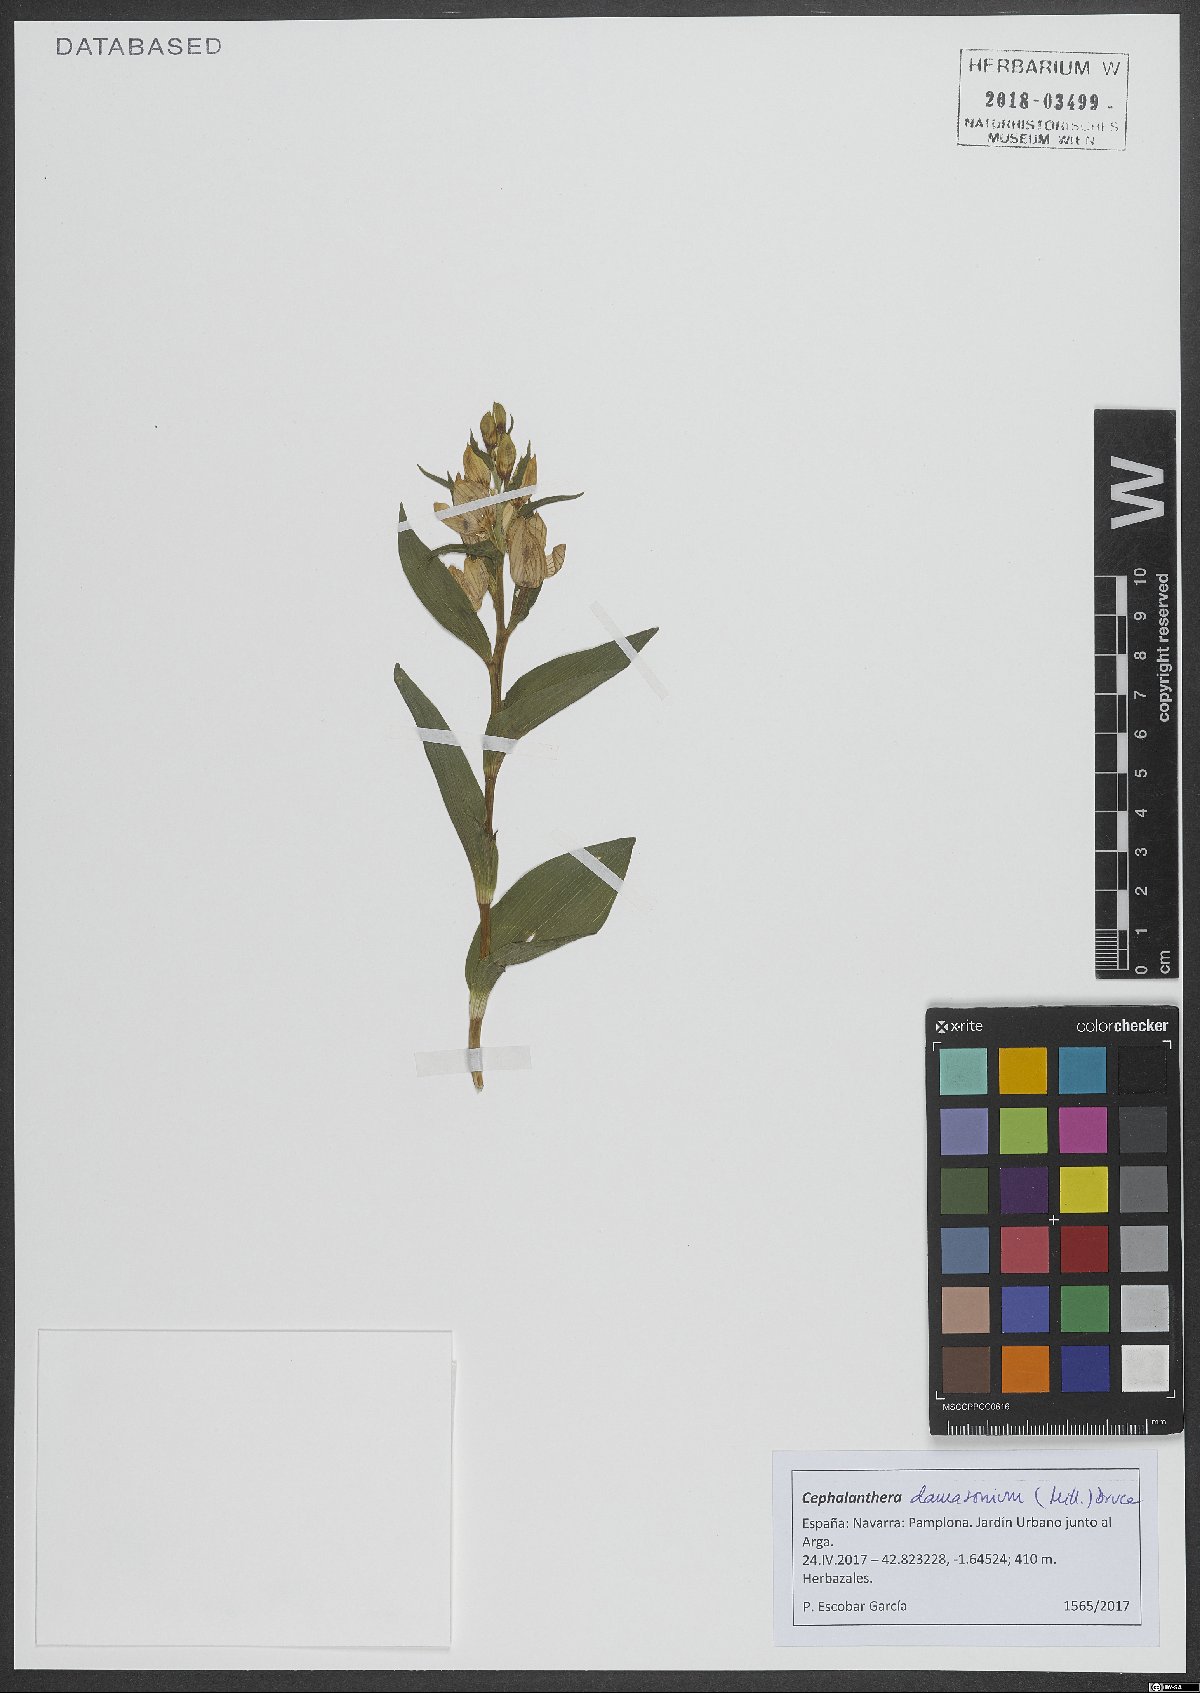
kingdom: Plantae
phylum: Tracheophyta
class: Liliopsida
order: Asparagales
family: Orchidaceae
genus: Cephalanthera
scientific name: Cephalanthera damasonium
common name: White helleborine
